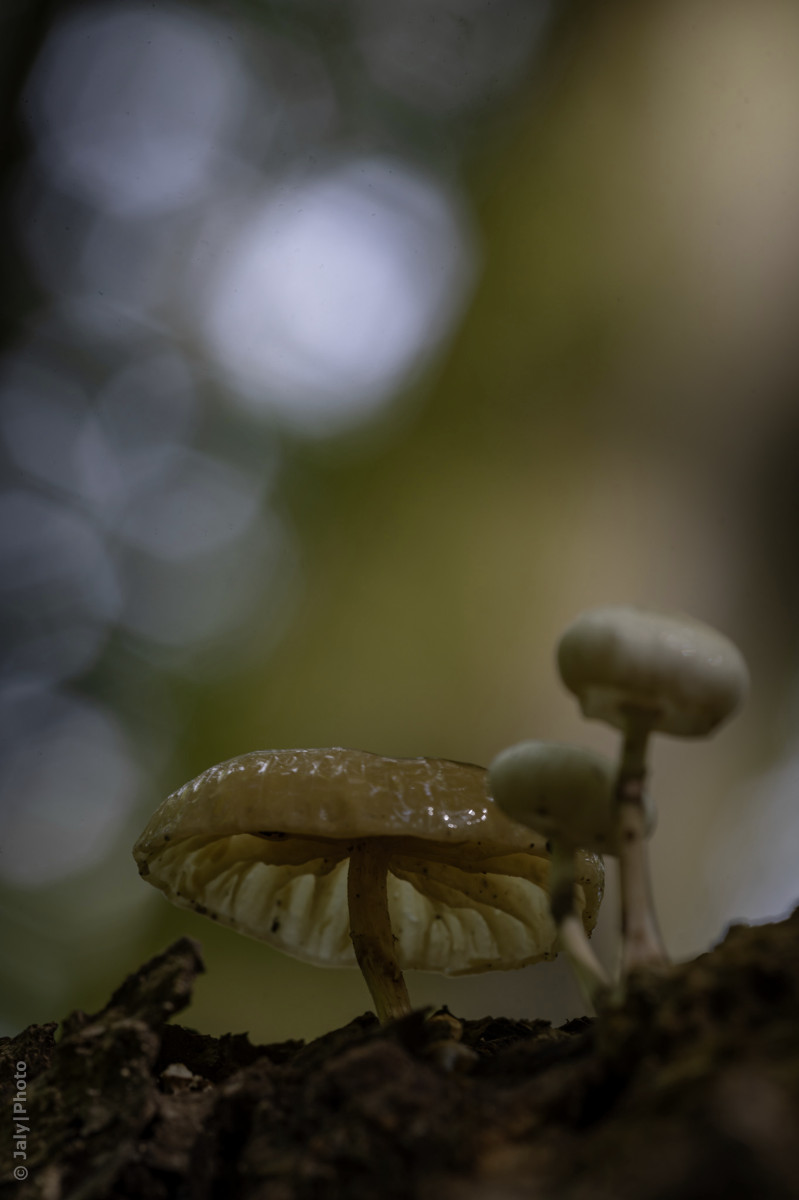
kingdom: Fungi
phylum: Basidiomycota
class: Agaricomycetes
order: Agaricales
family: Physalacriaceae
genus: Mucidula
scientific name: Mucidula mucida
